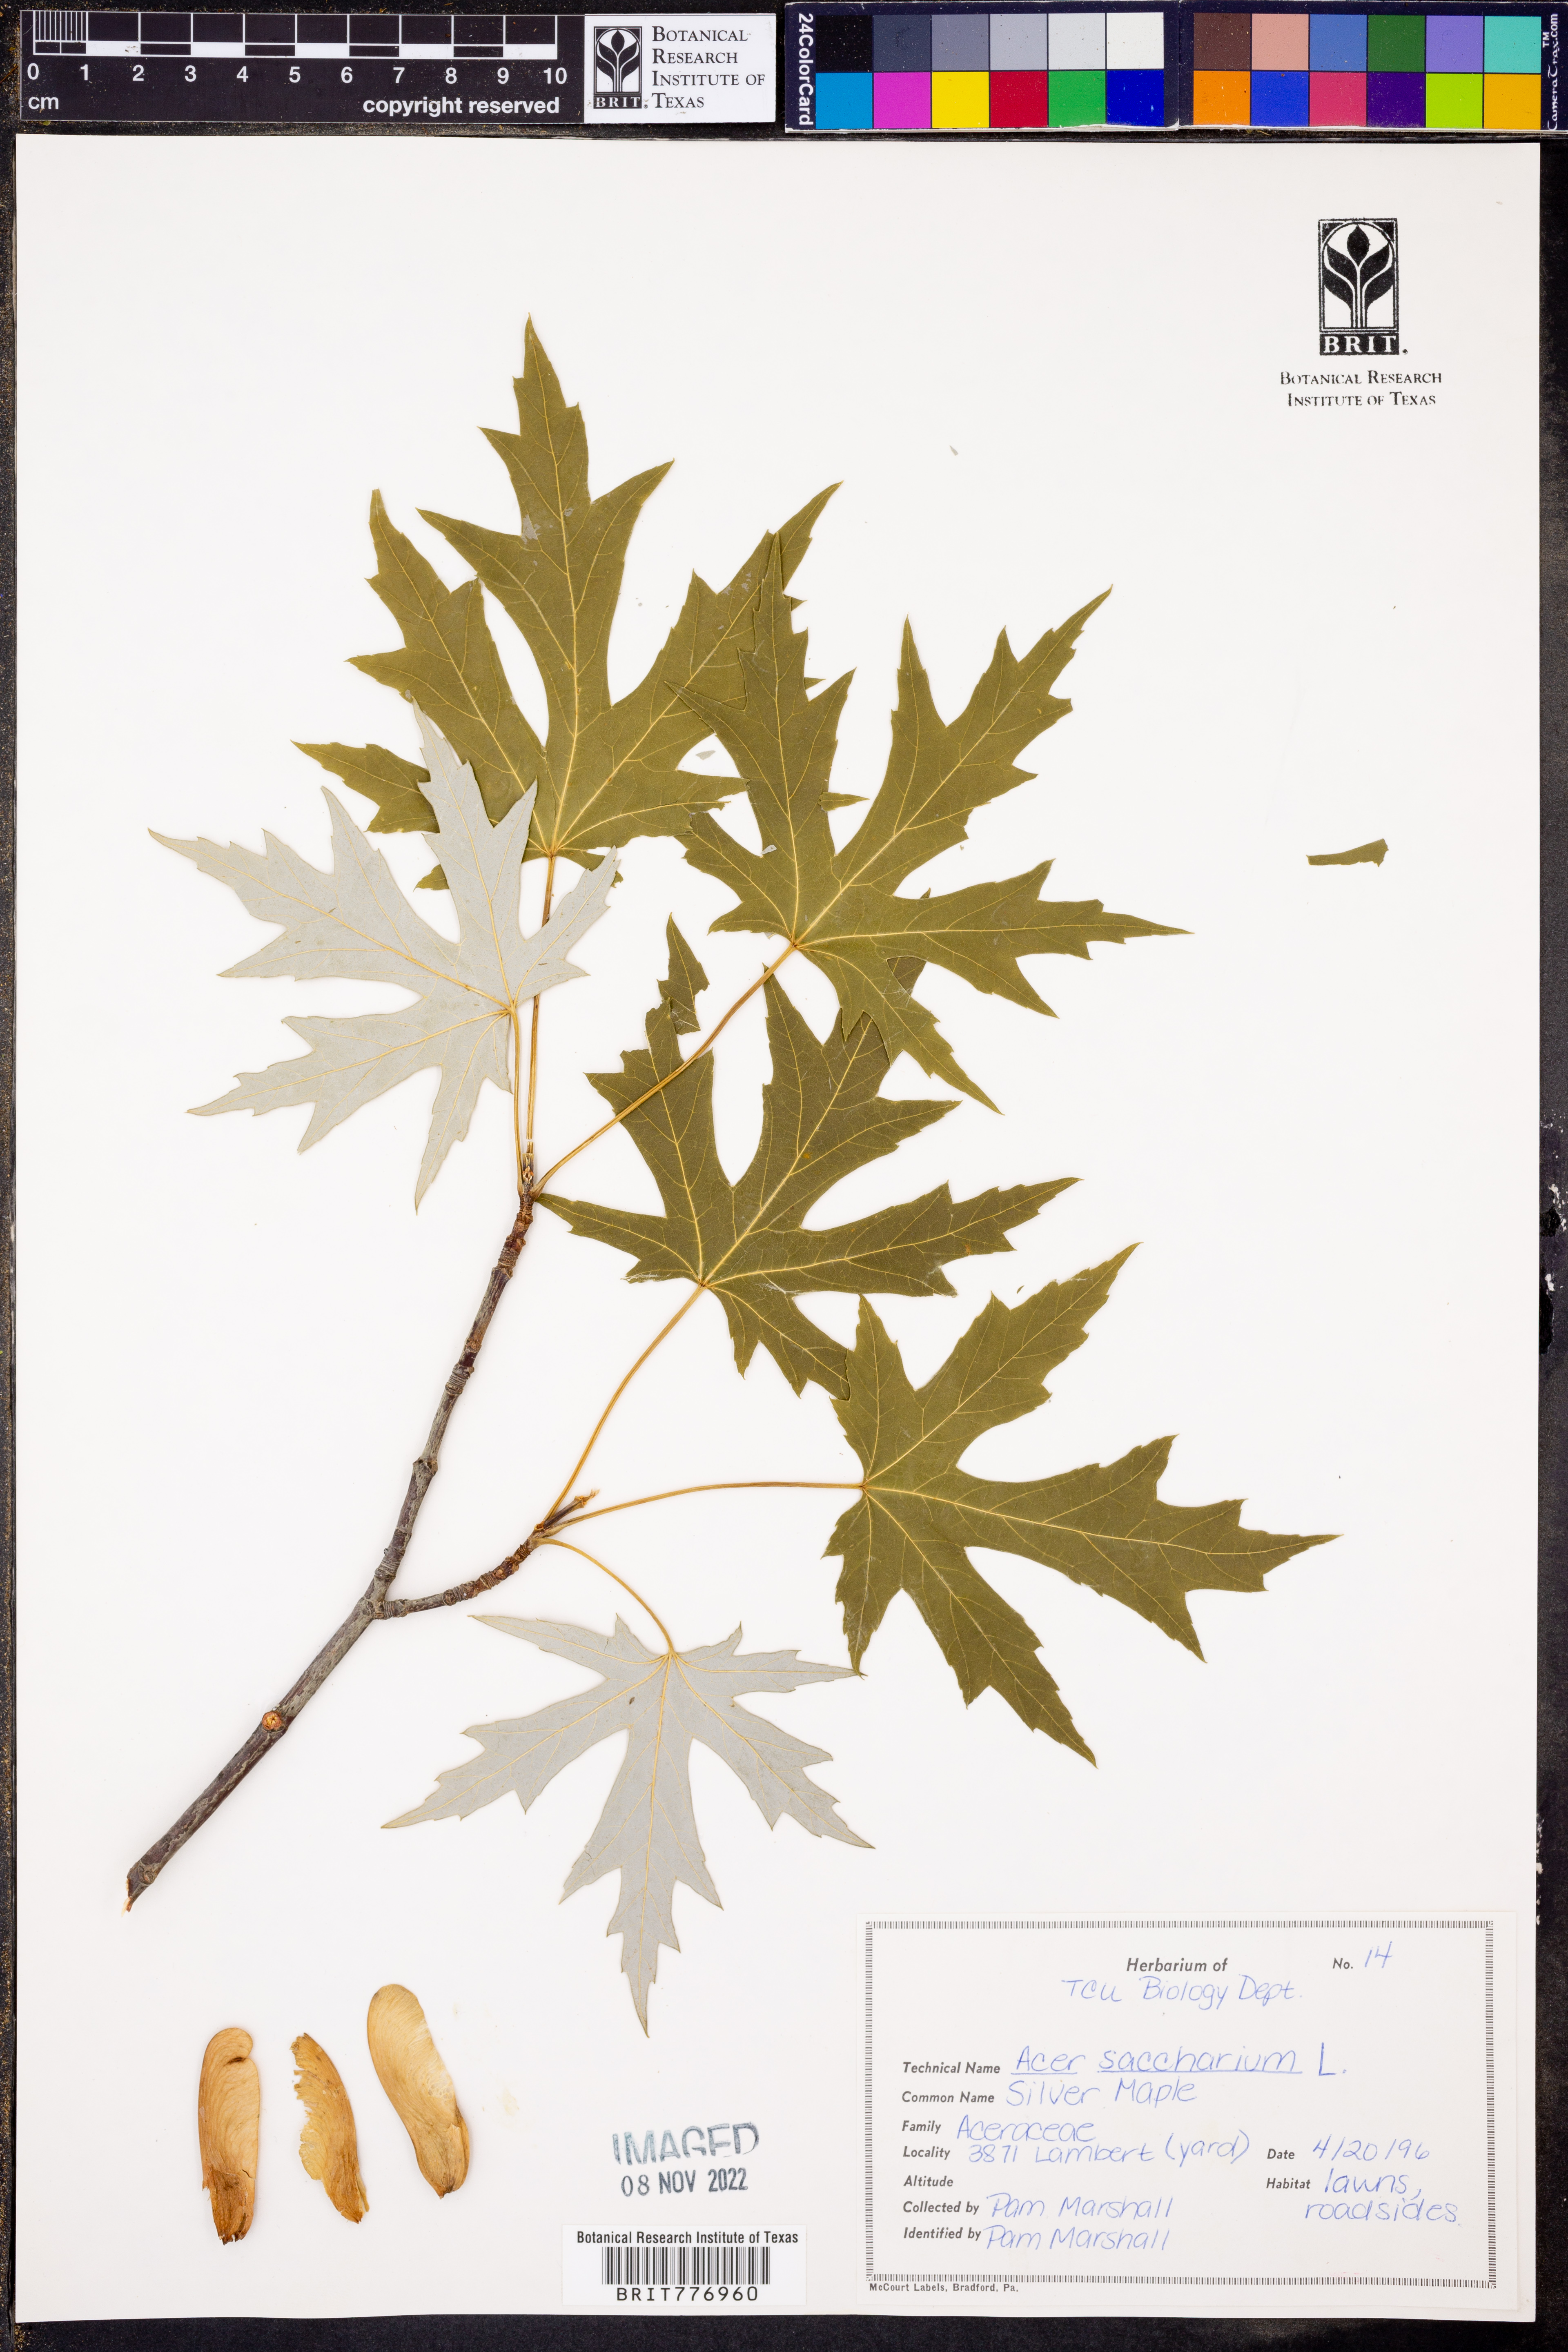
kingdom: Plantae
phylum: Tracheophyta
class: Magnoliopsida
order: Sapindales
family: Sapindaceae
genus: Acer
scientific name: Acer saccharinum
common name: Silver maple
